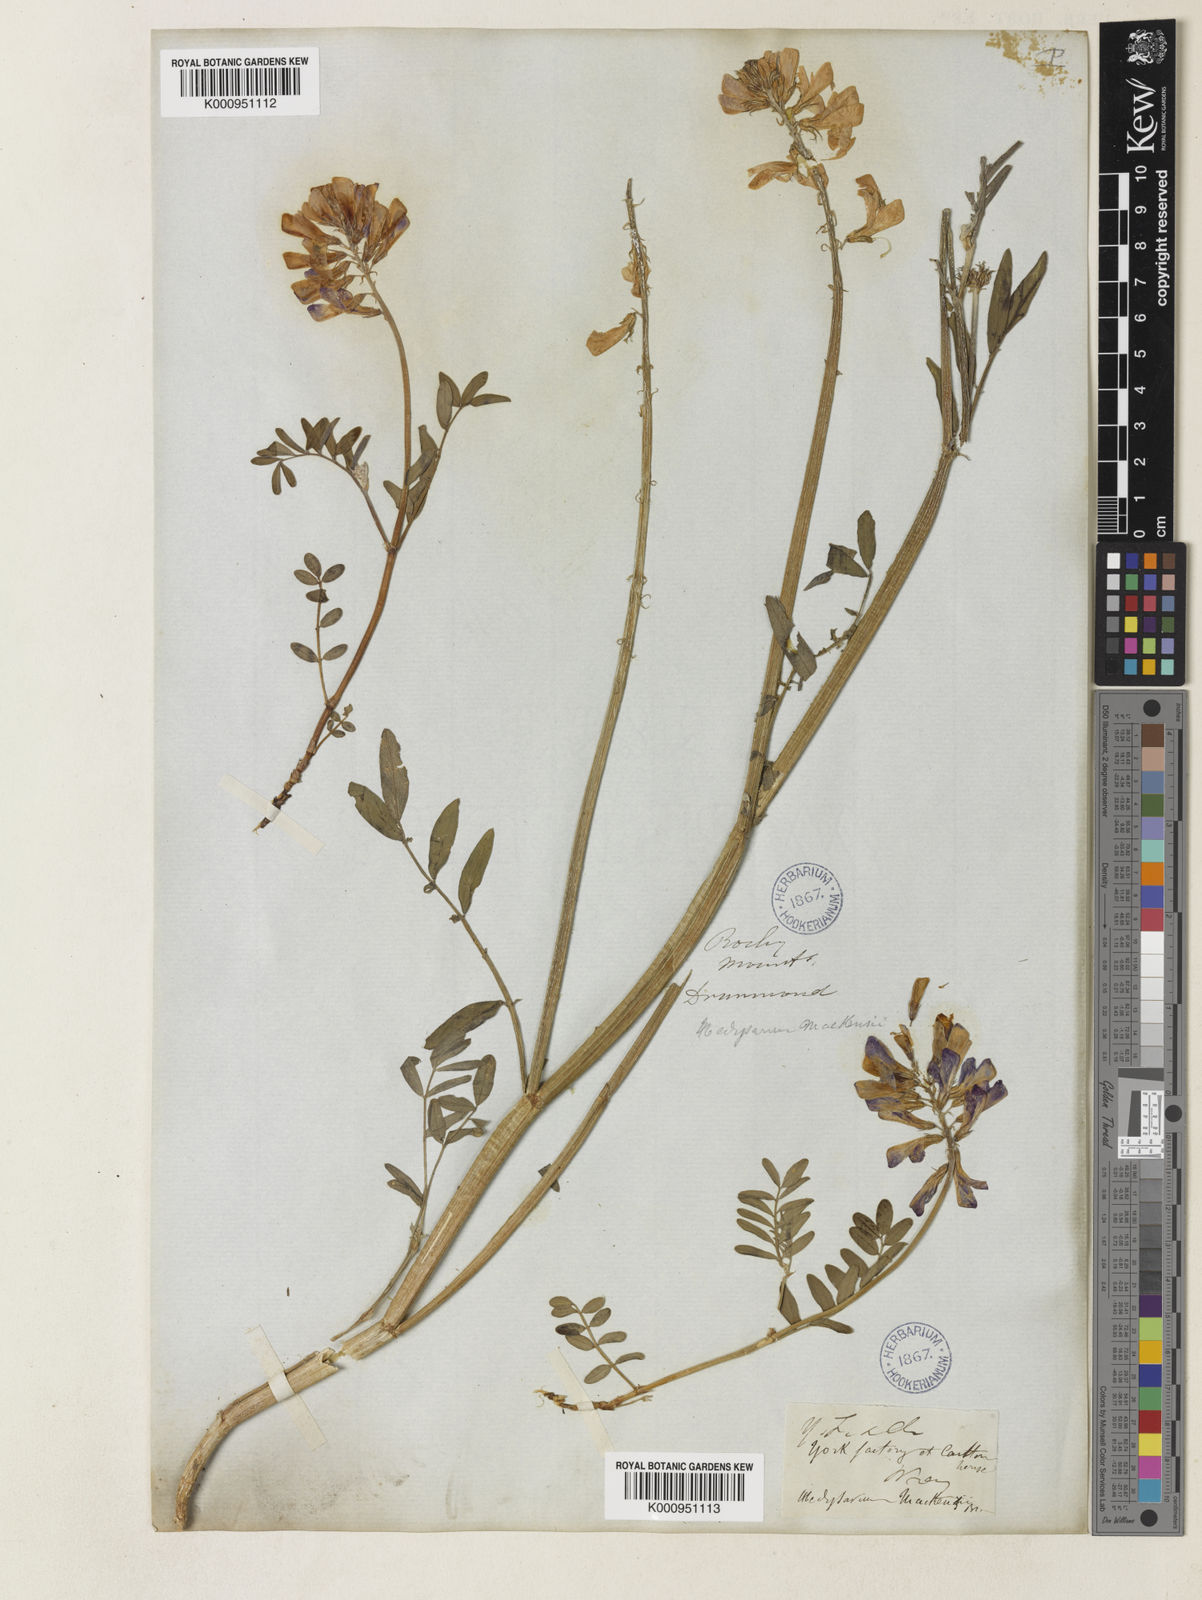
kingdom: Plantae
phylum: Tracheophyta
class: Magnoliopsida
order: Fabales
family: Fabaceae
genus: Hedysarum
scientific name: Hedysarum boreale
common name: Northern sweet-vetch
